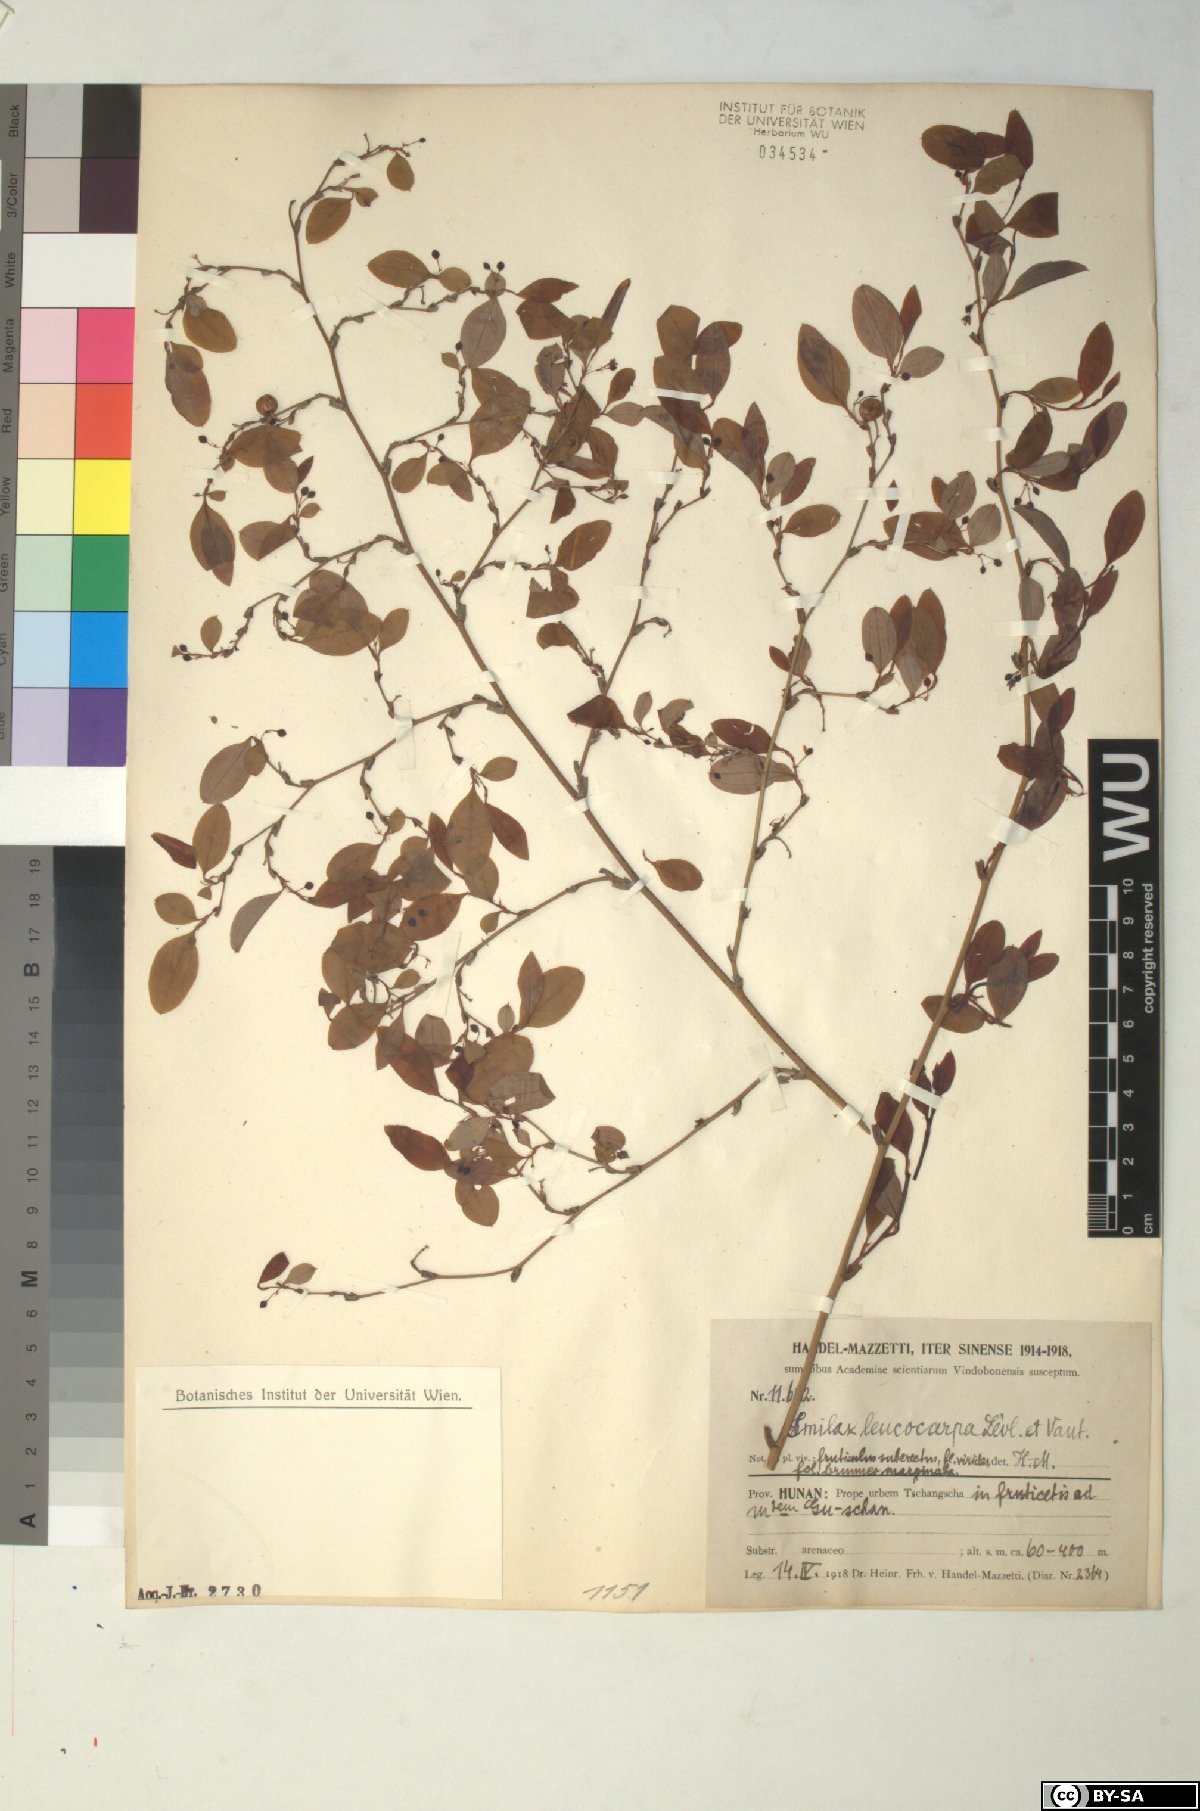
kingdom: Plantae
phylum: Tracheophyta
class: Liliopsida
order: Liliales
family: Smilacaceae
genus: Smilax
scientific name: Smilax trinervula
